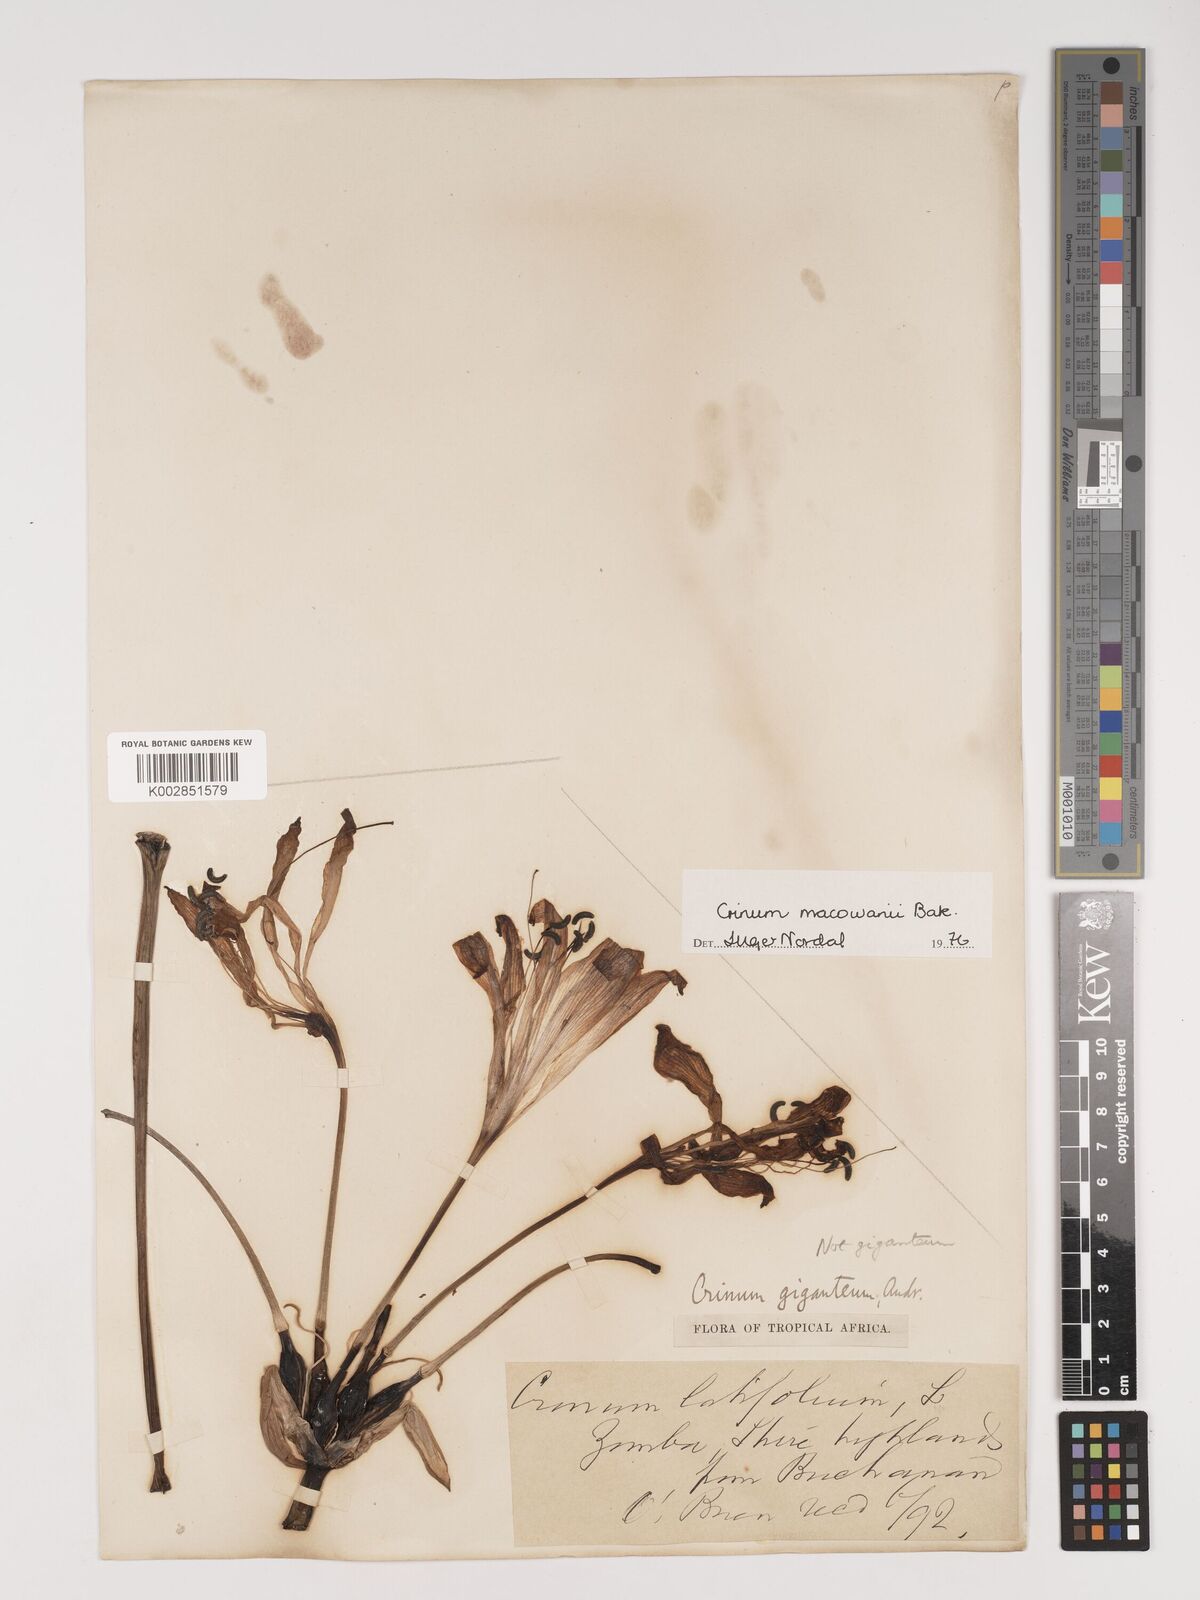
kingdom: Plantae
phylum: Tracheophyta
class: Liliopsida
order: Asparagales
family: Amaryllidaceae
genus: Crinum
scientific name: Crinum macowanii
